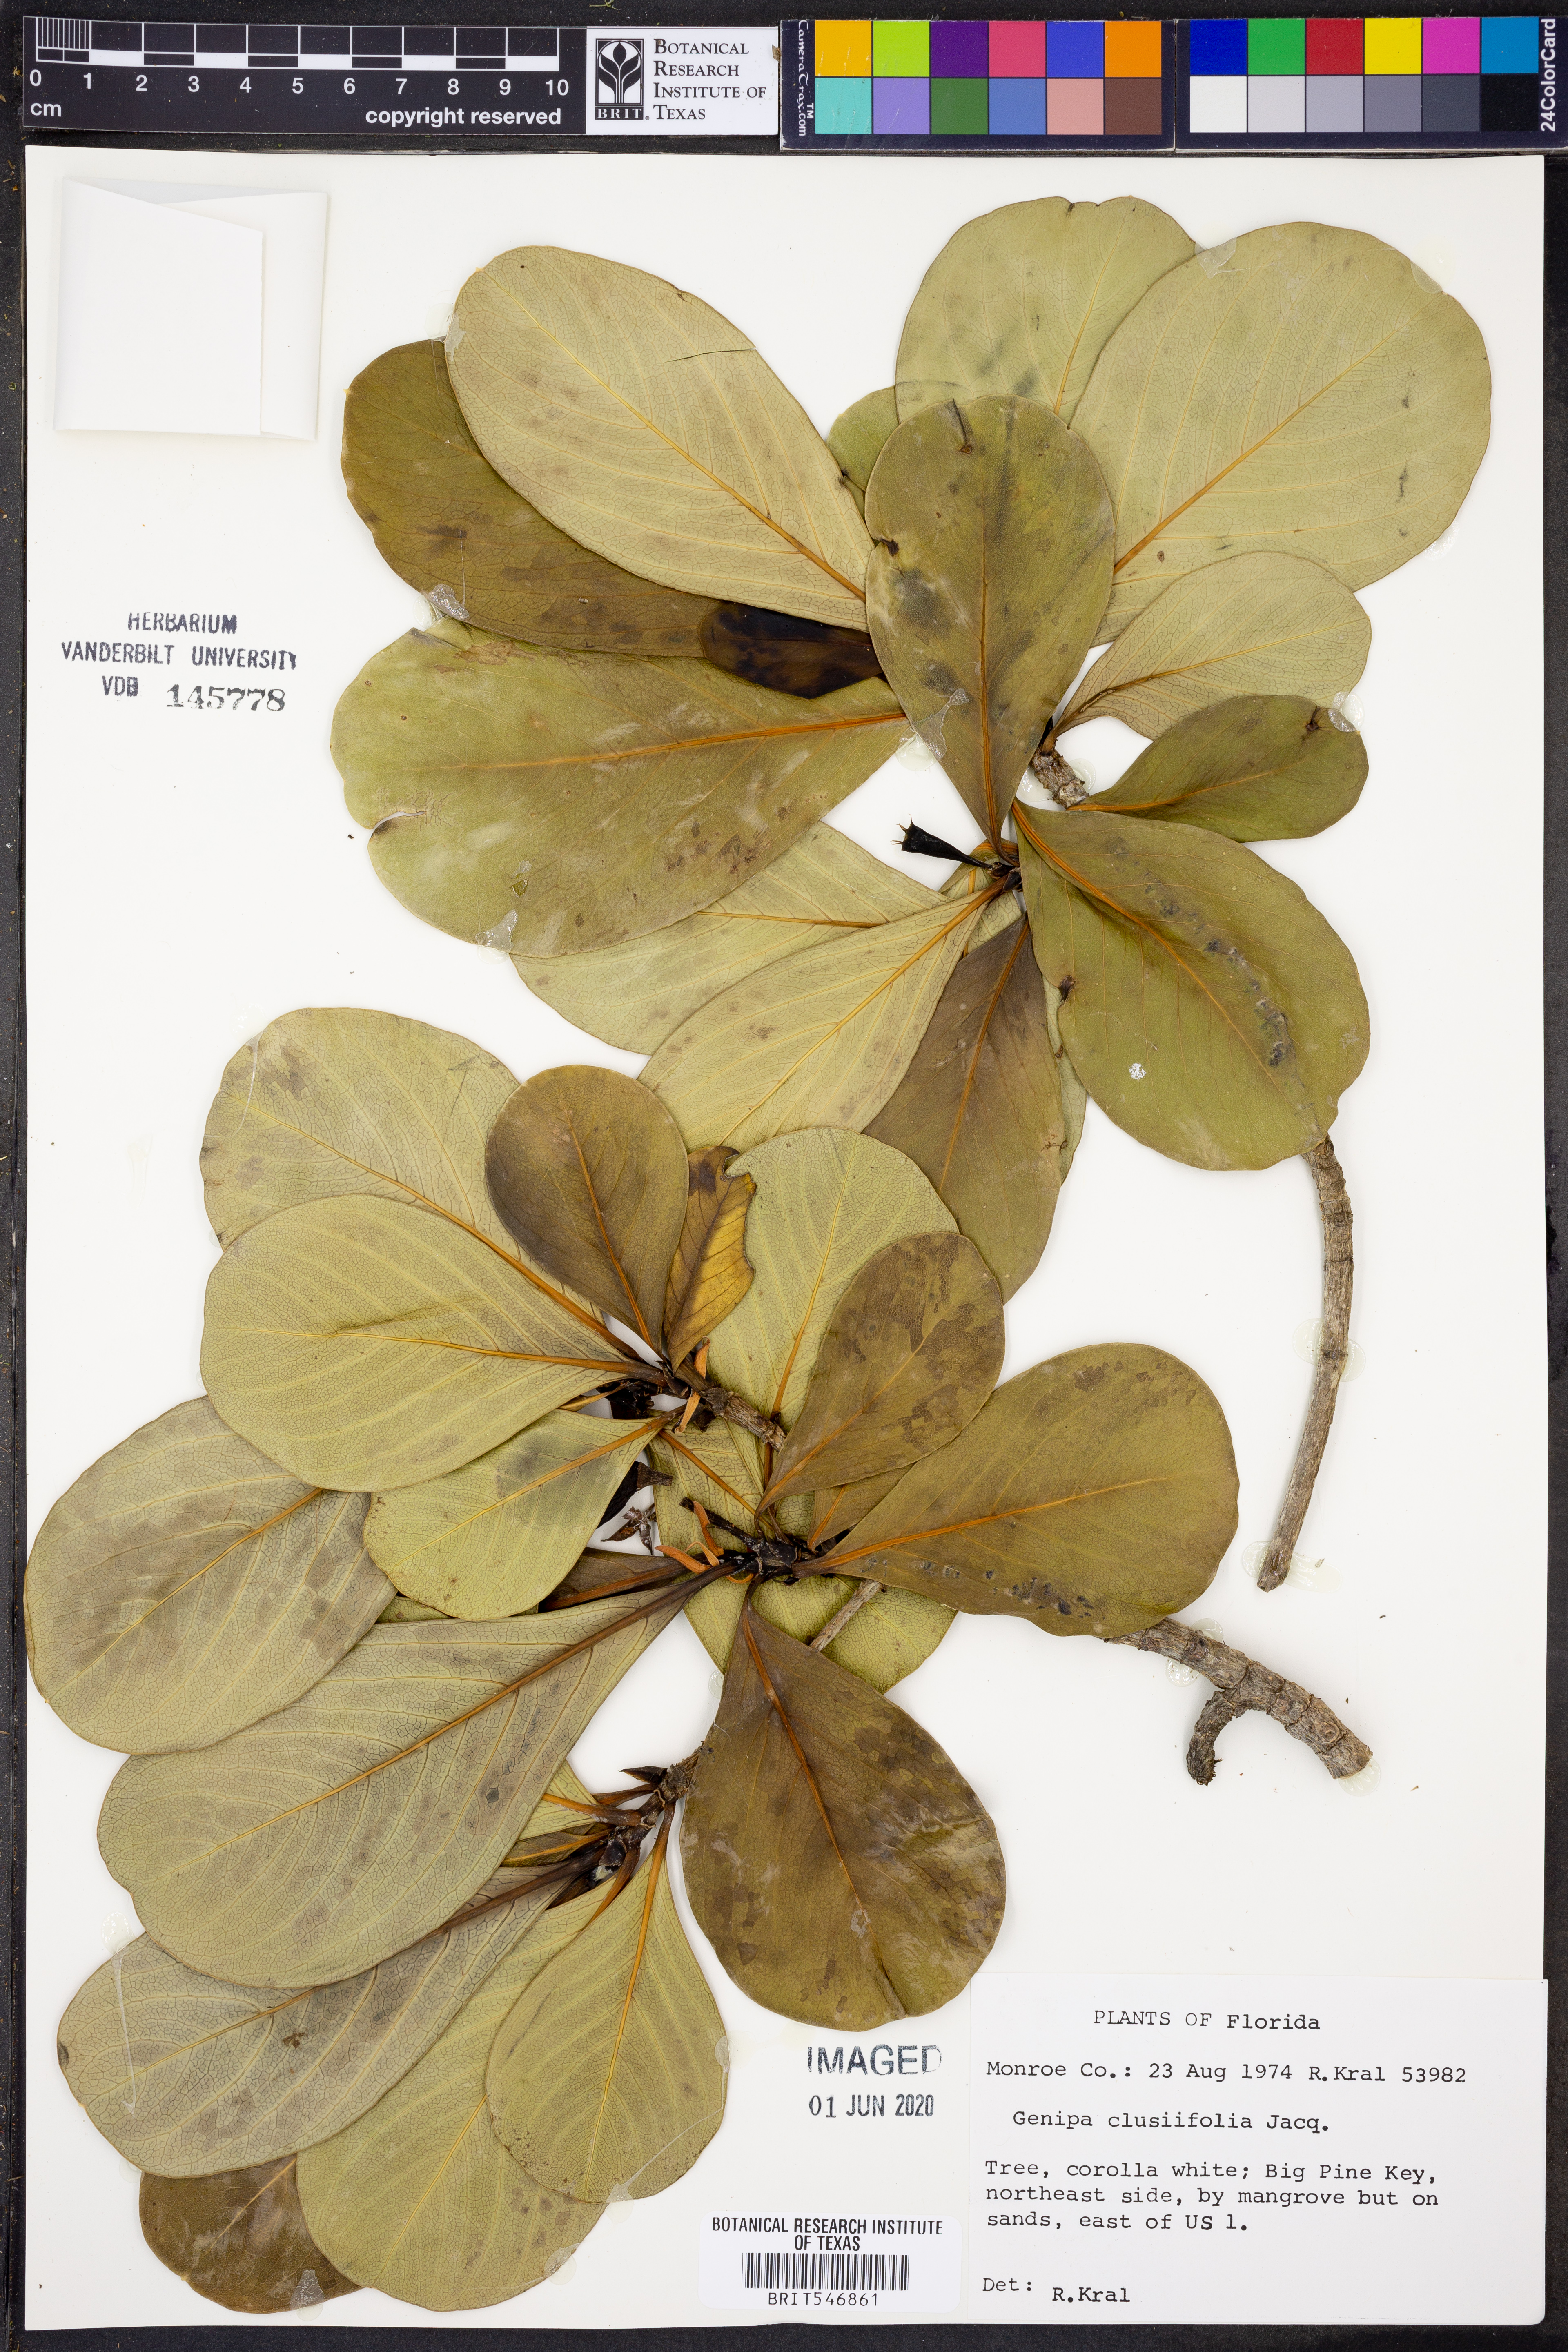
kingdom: Plantae
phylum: Tracheophyta
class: Magnoliopsida
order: Gentianales
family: Rubiaceae
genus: Casasia
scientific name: Casasia clusiifolia
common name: Seven-year apple
